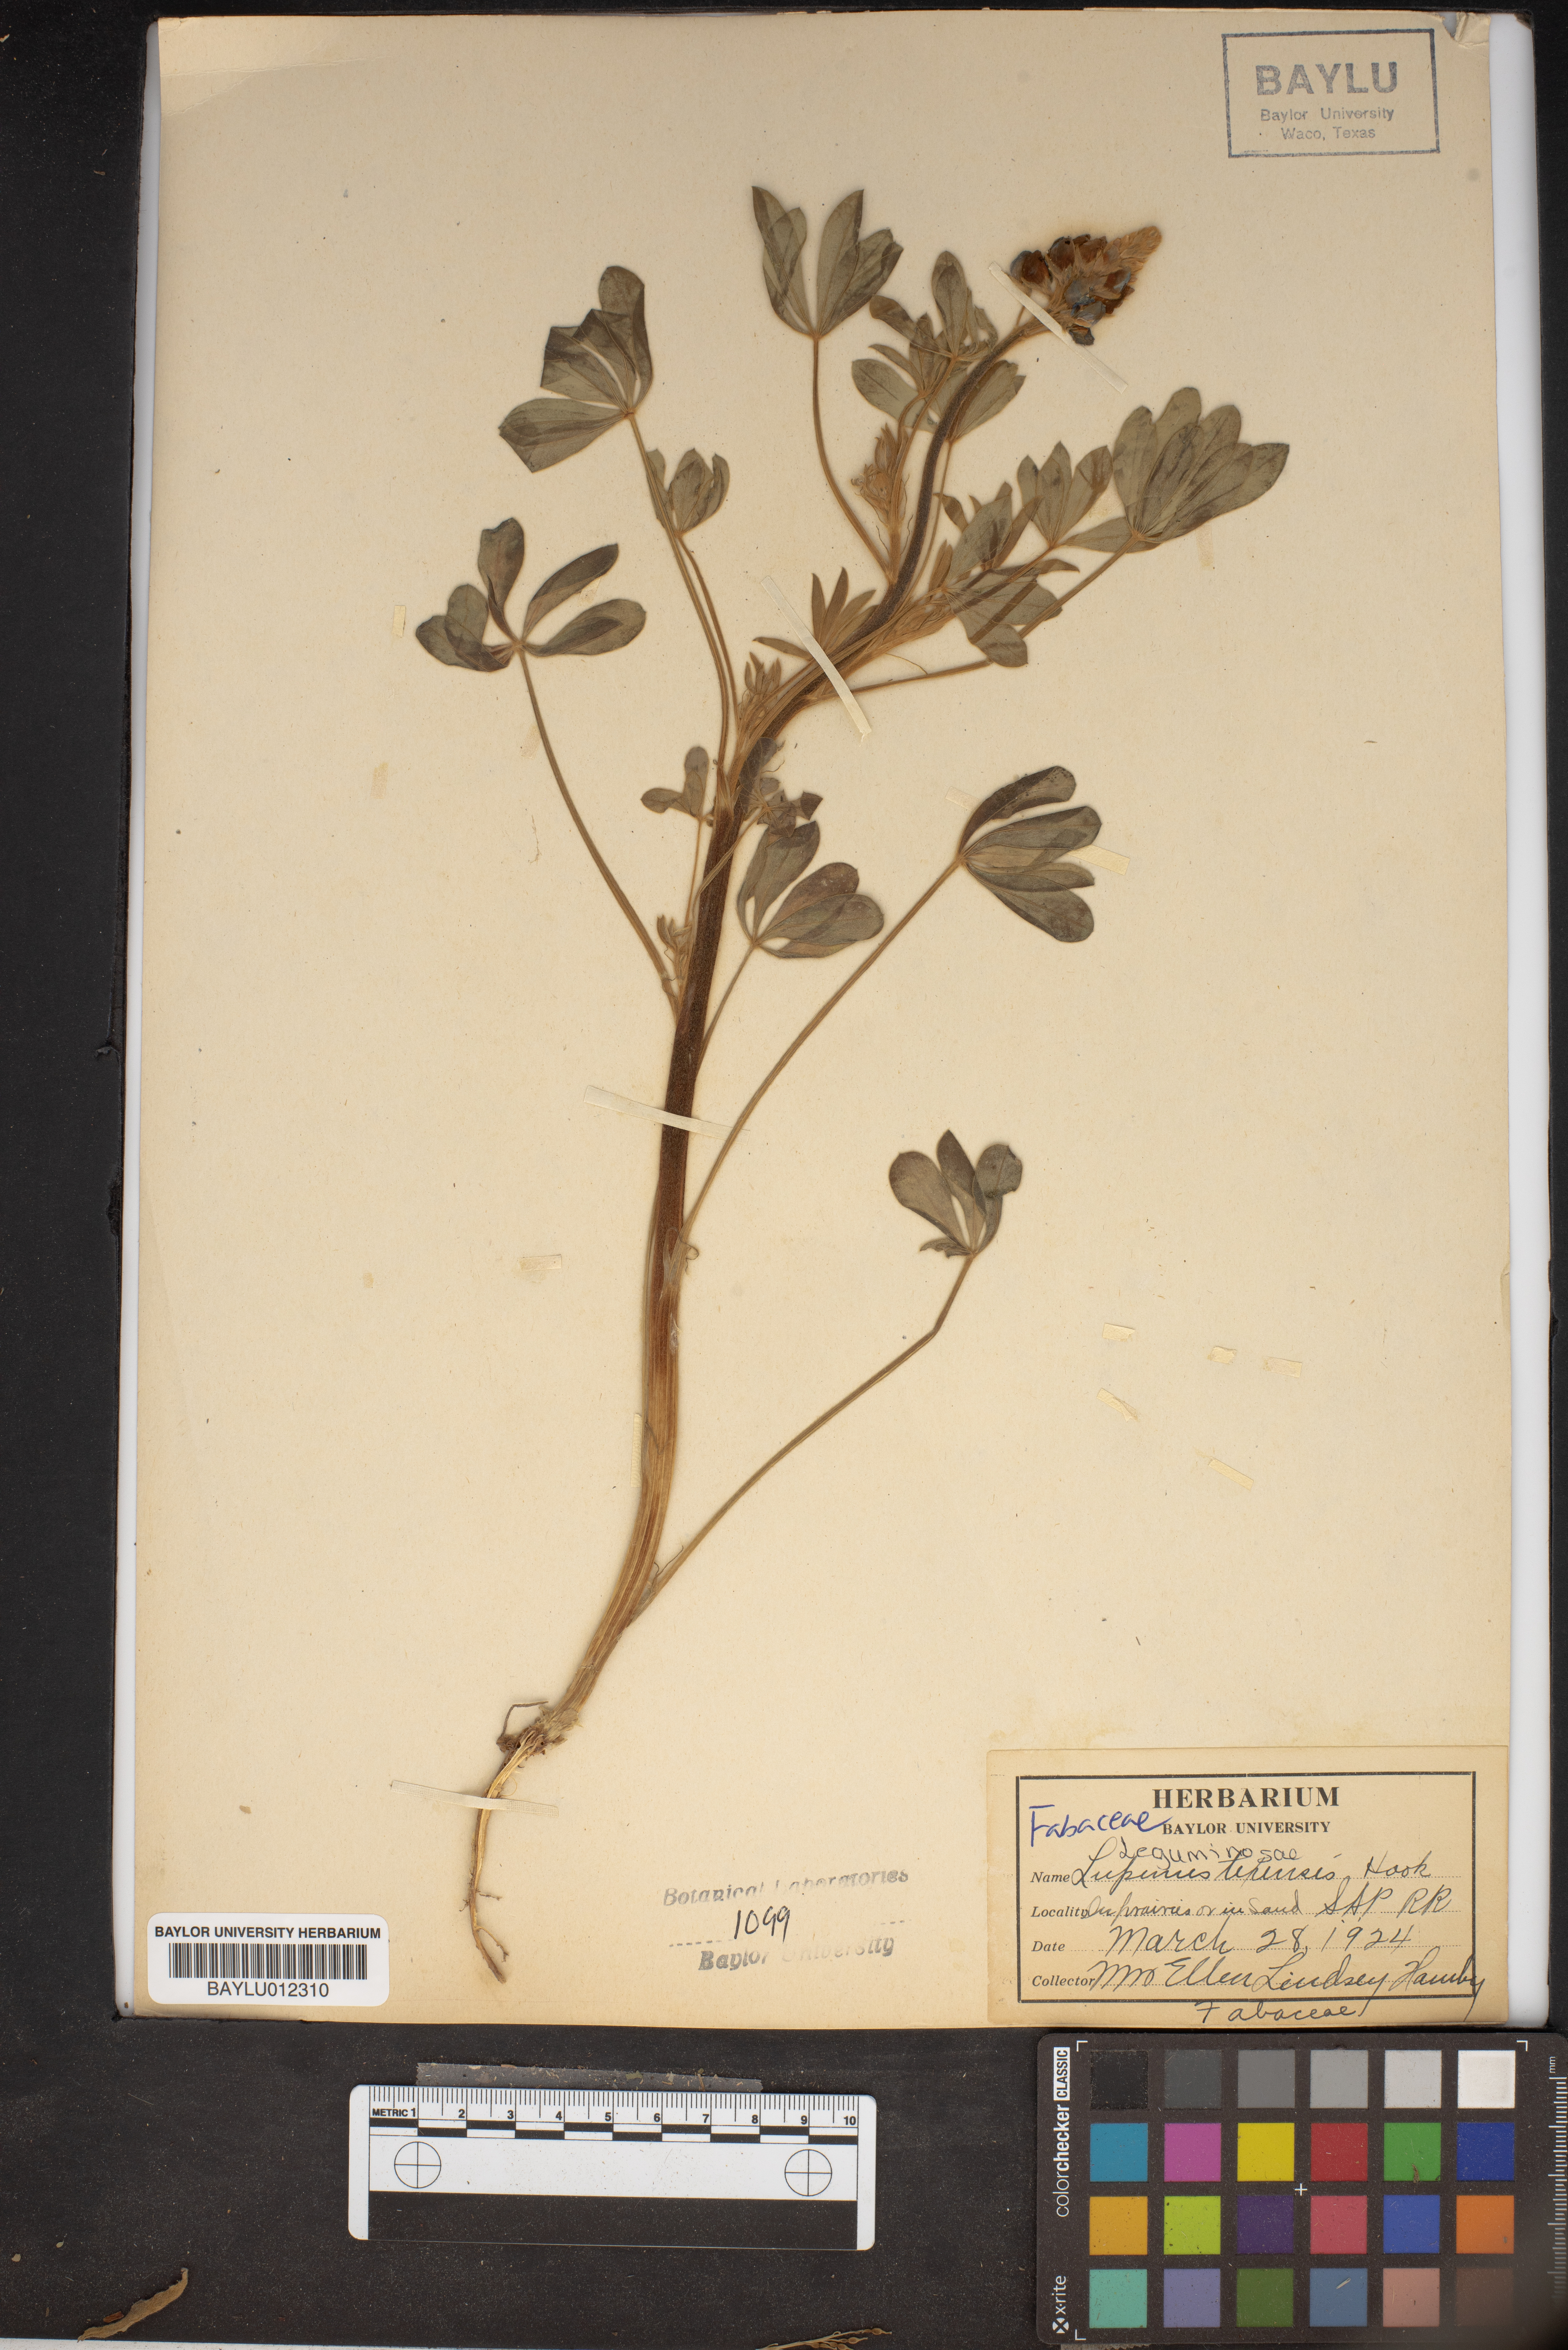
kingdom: Plantae
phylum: Tracheophyta
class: Magnoliopsida
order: Fabales
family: Fabaceae
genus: Lupinus
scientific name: Lupinus
